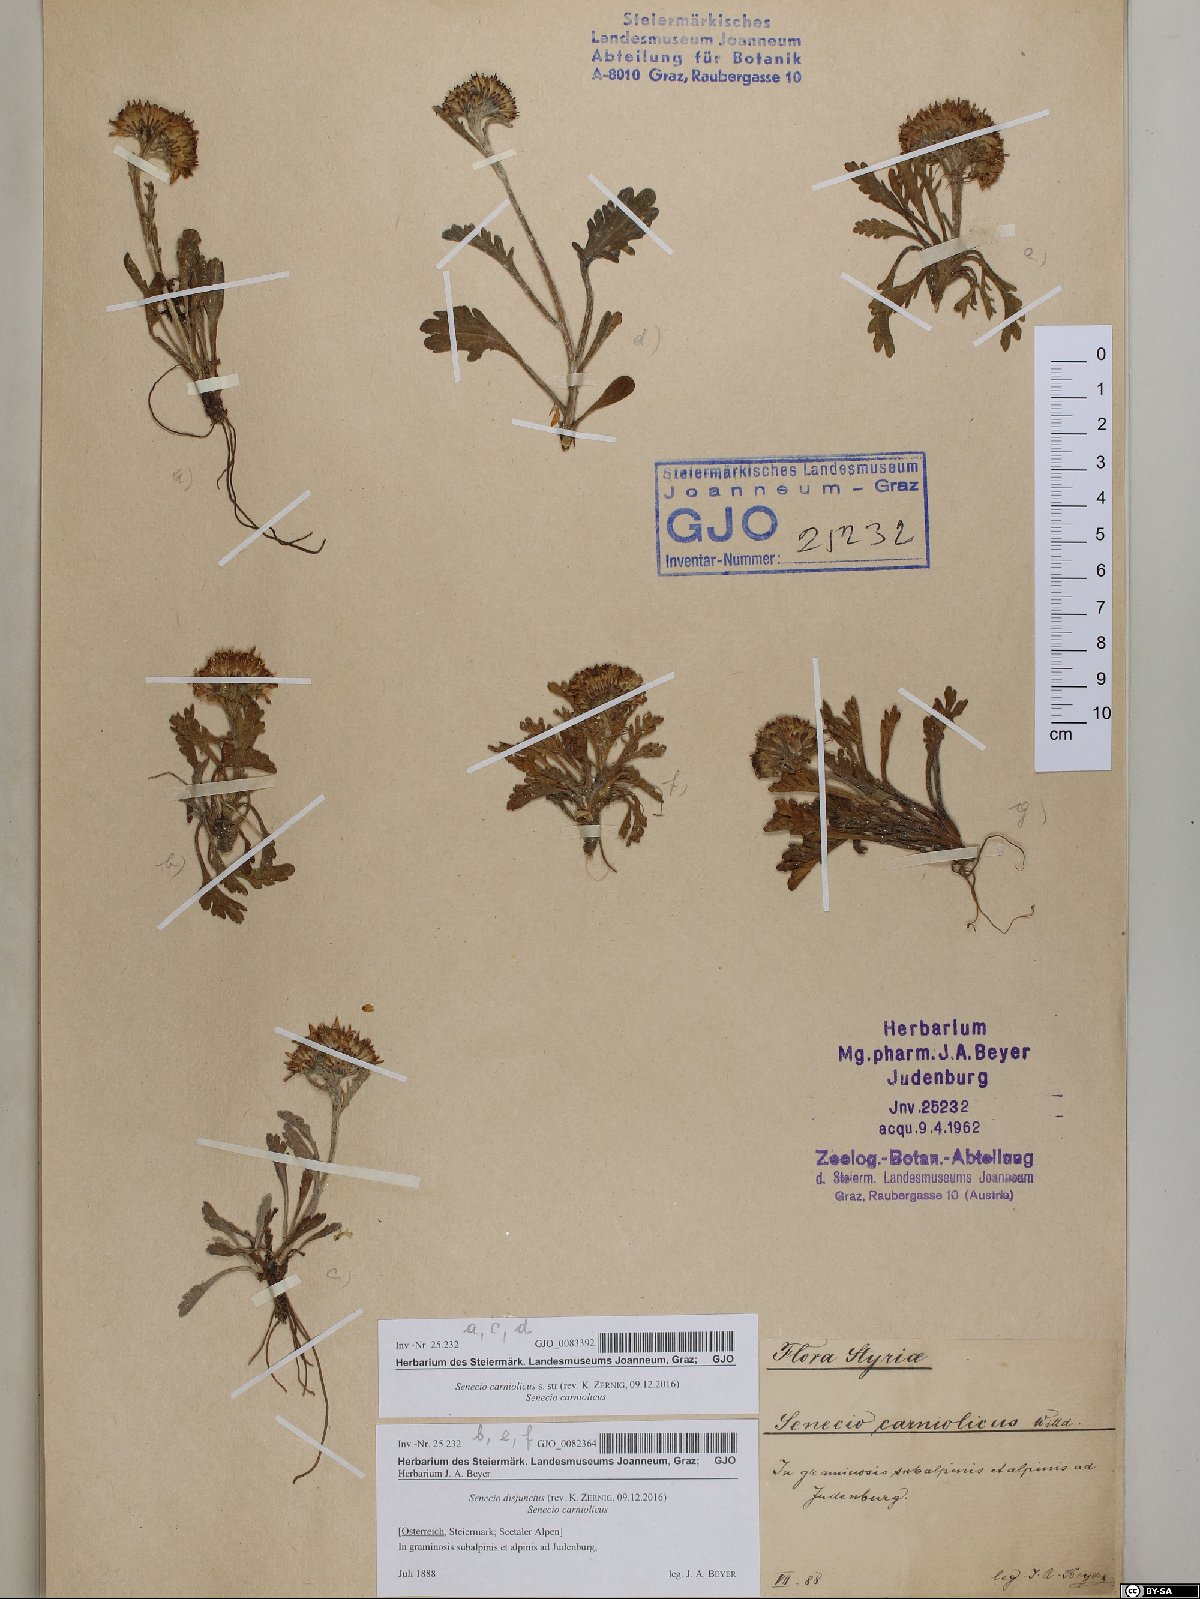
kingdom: Plantae
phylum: Tracheophyta
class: Magnoliopsida
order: Asterales
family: Asteraceae
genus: Jacobaea
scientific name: Jacobaea carniolica
